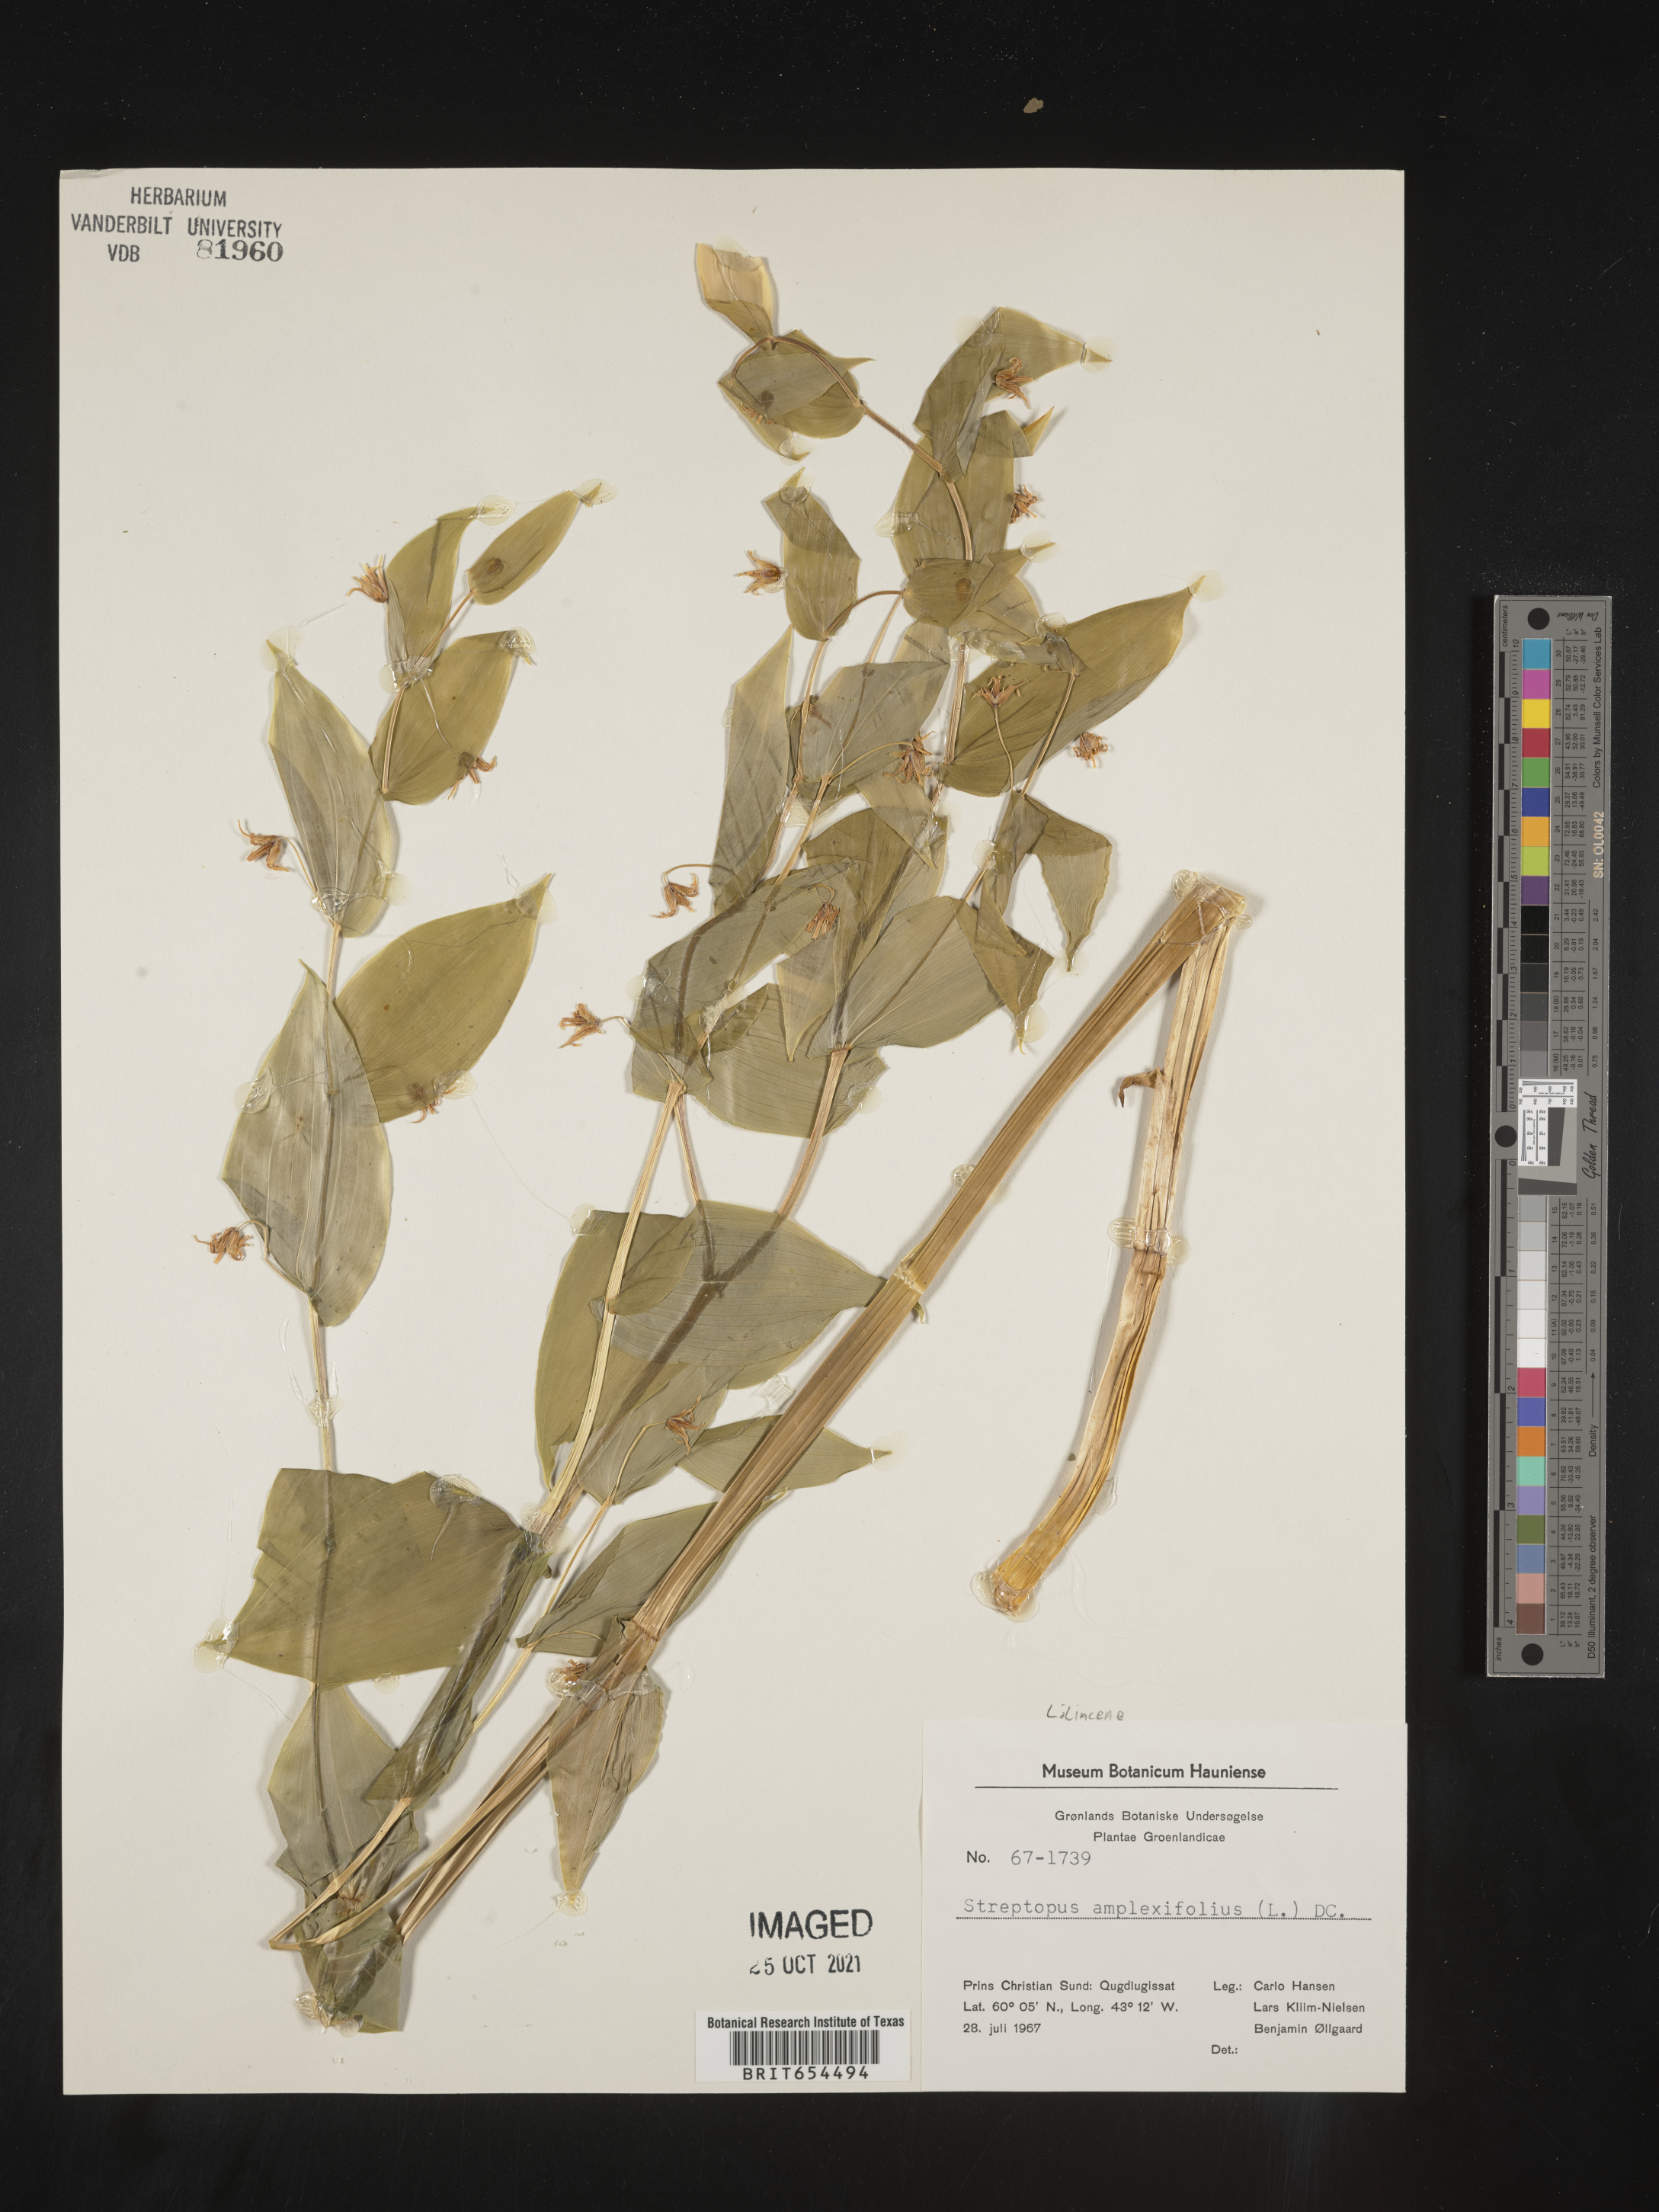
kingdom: Plantae
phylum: Tracheophyta
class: Liliopsida
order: Liliales
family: Liliaceae
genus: Streptopus
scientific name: Streptopus
